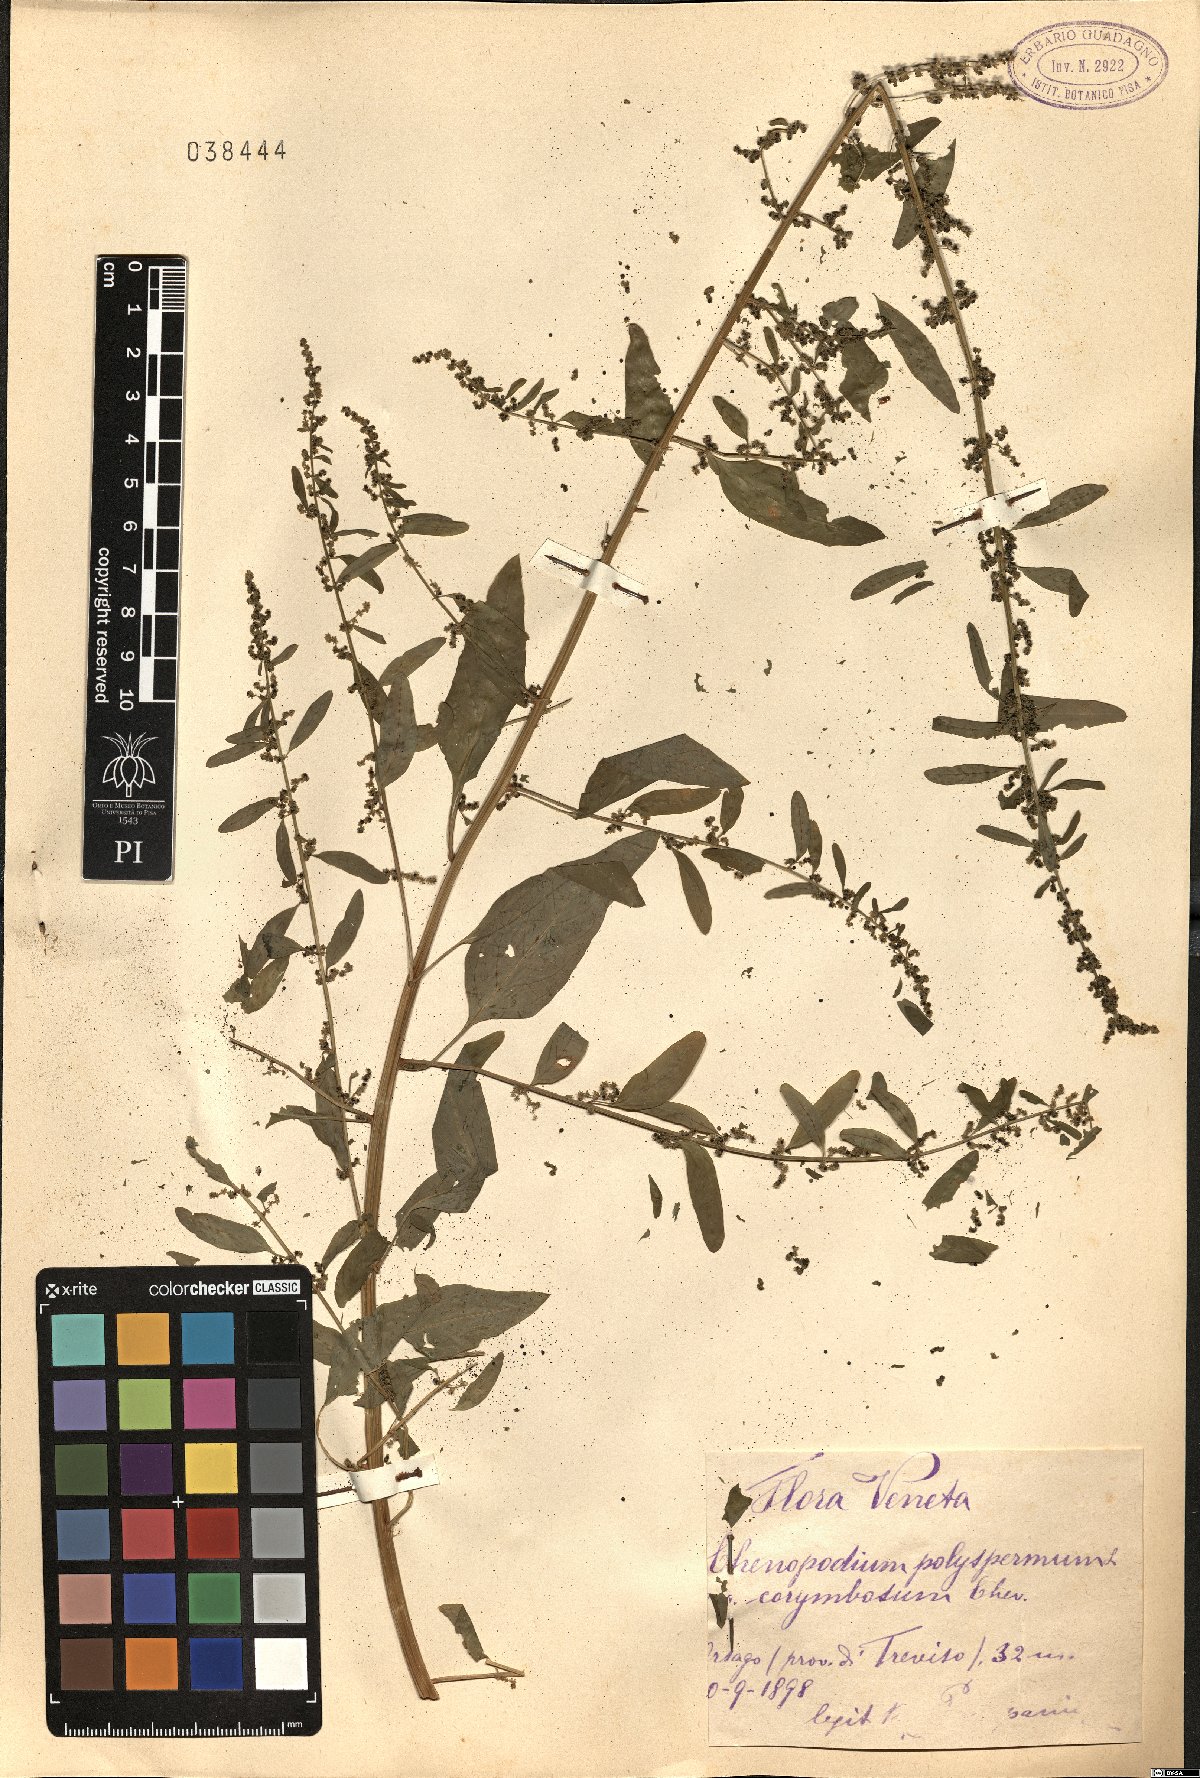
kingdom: Plantae
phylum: Tracheophyta
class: Magnoliopsida
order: Caryophyllales
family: Amaranthaceae
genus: Lipandra
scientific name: Lipandra polysperma
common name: Many-seed goosefoot
